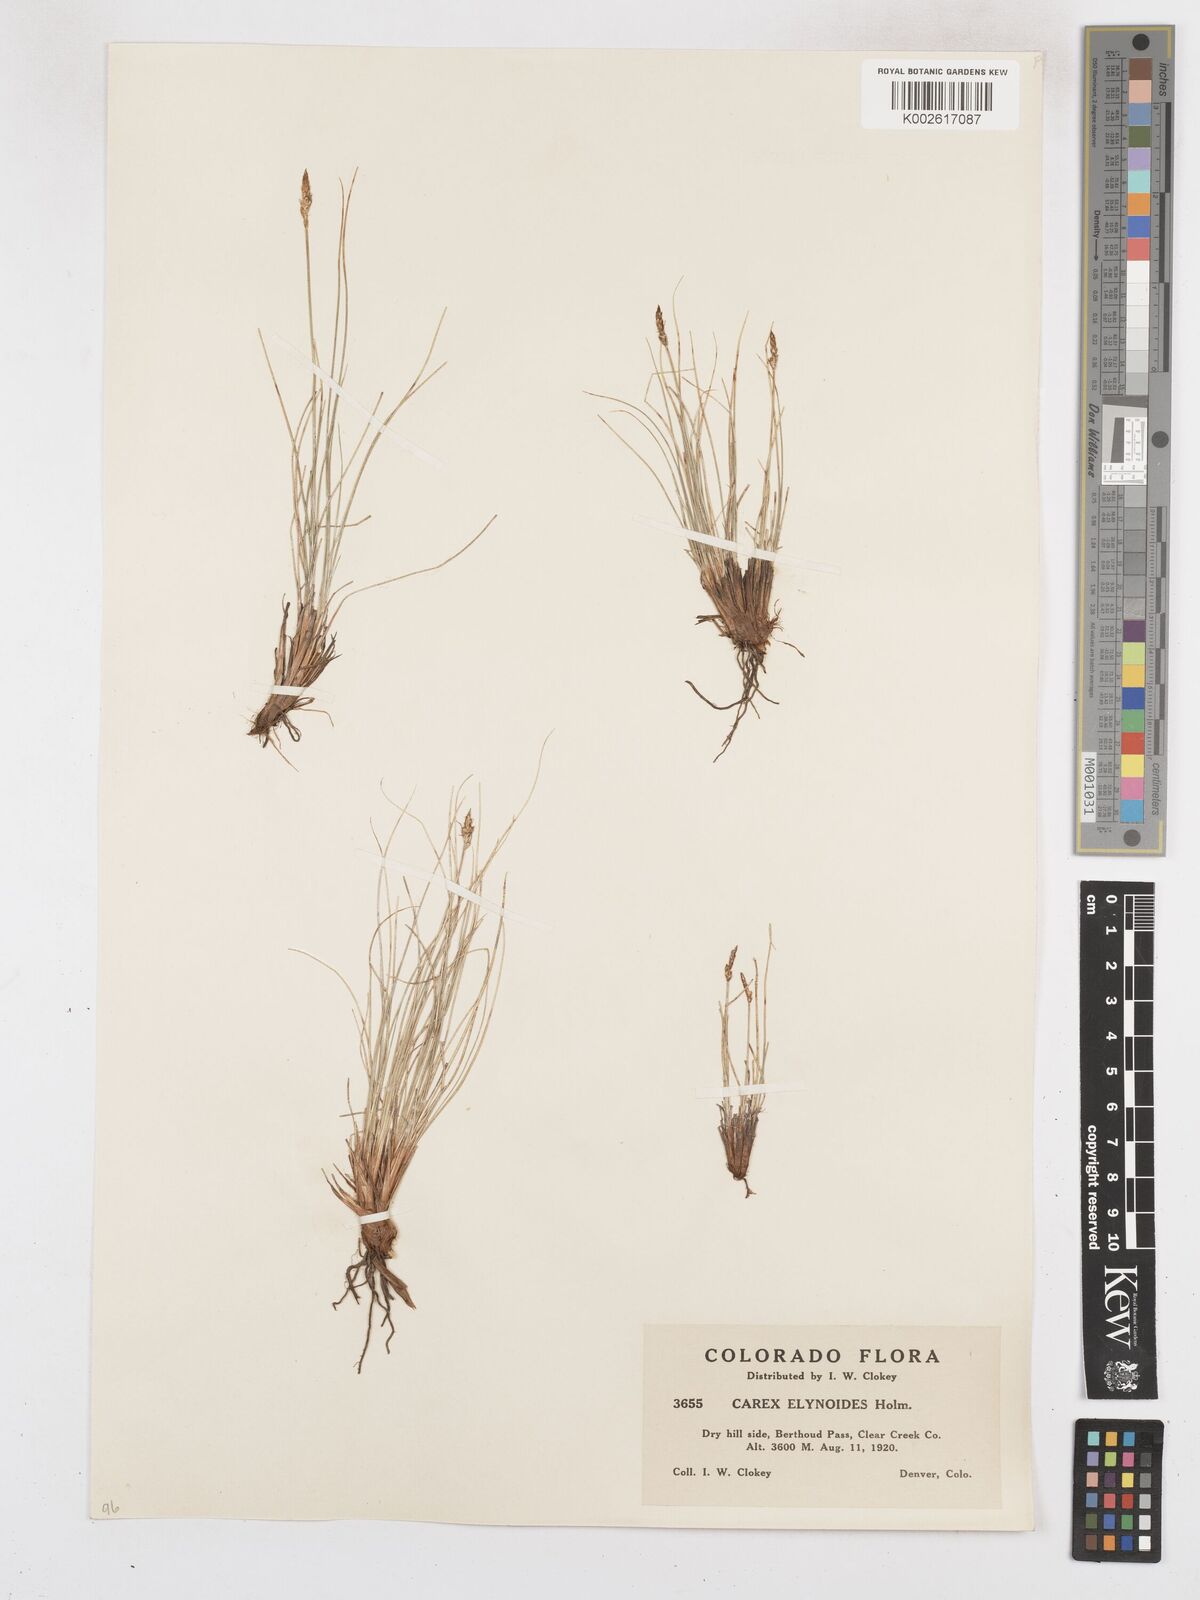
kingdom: Plantae
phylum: Tracheophyta
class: Liliopsida
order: Poales
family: Cyperaceae
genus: Carex
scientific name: Carex elynoides
